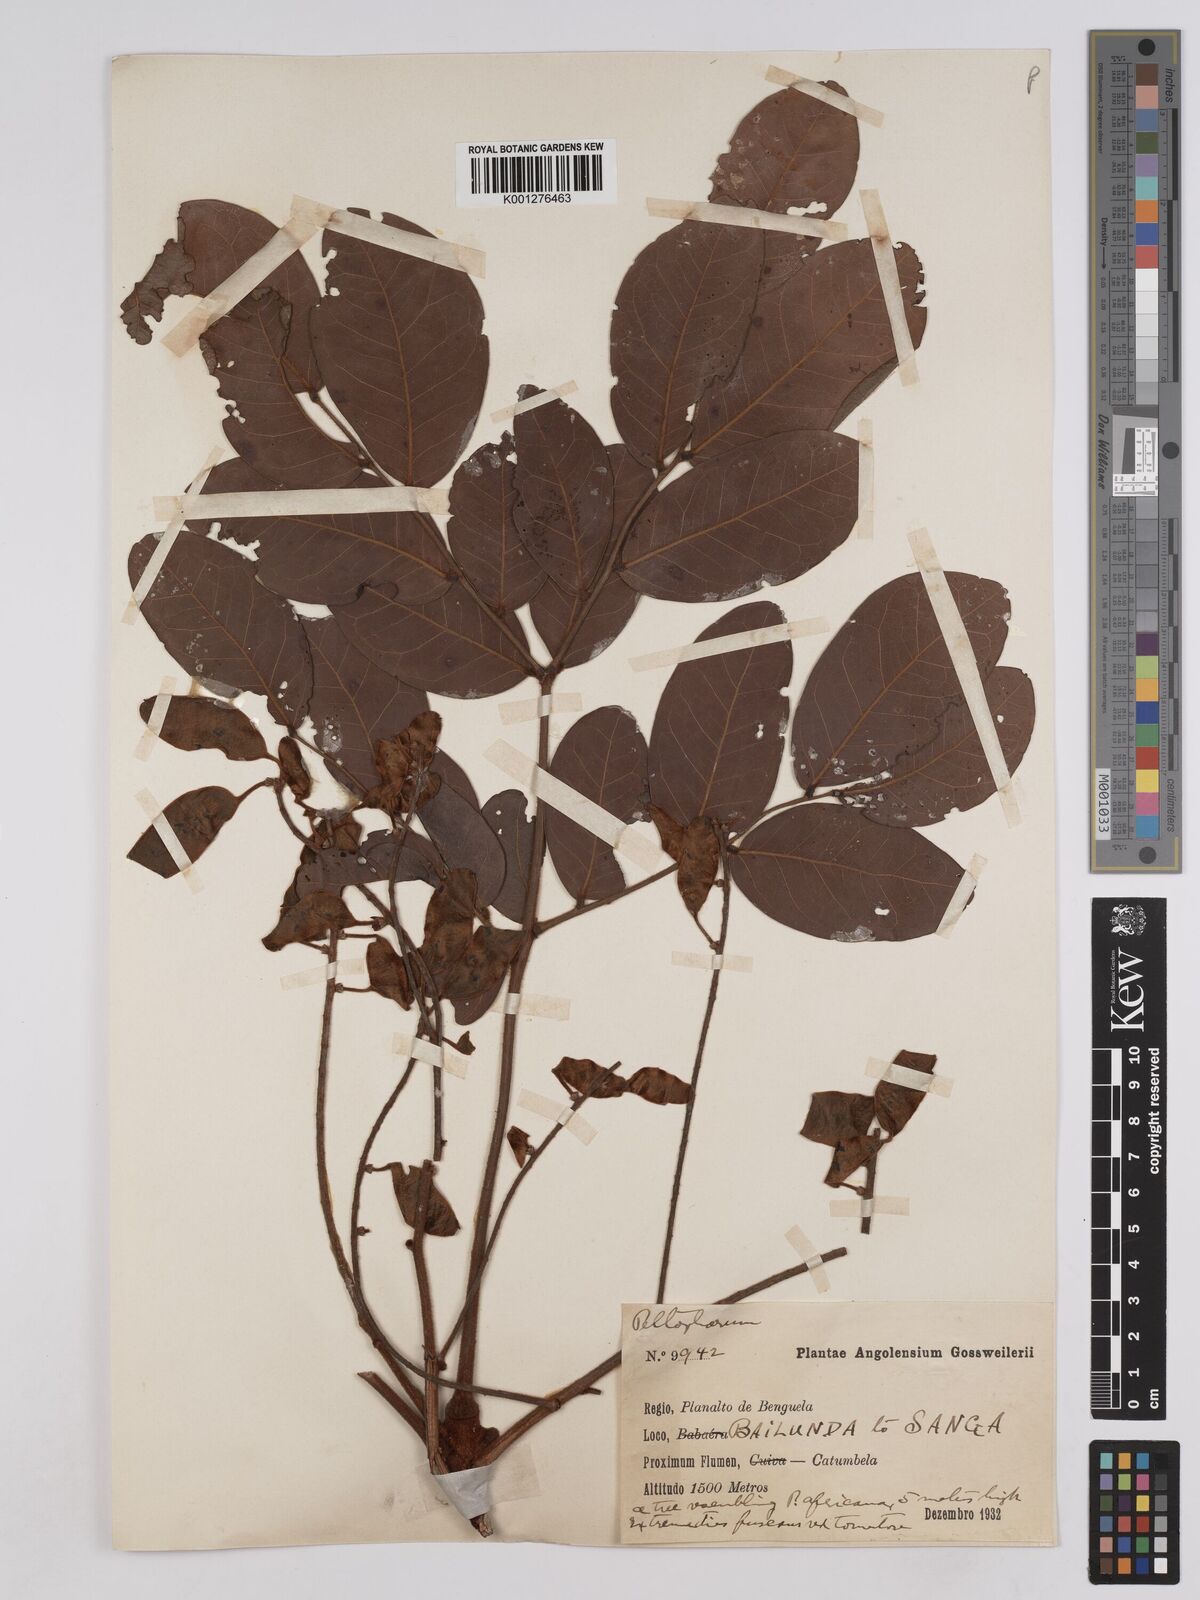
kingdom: Plantae
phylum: Tracheophyta
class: Magnoliopsida
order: Fabales
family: Fabaceae
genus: Burkea
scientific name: Burkea africana
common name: Mkalati tree
